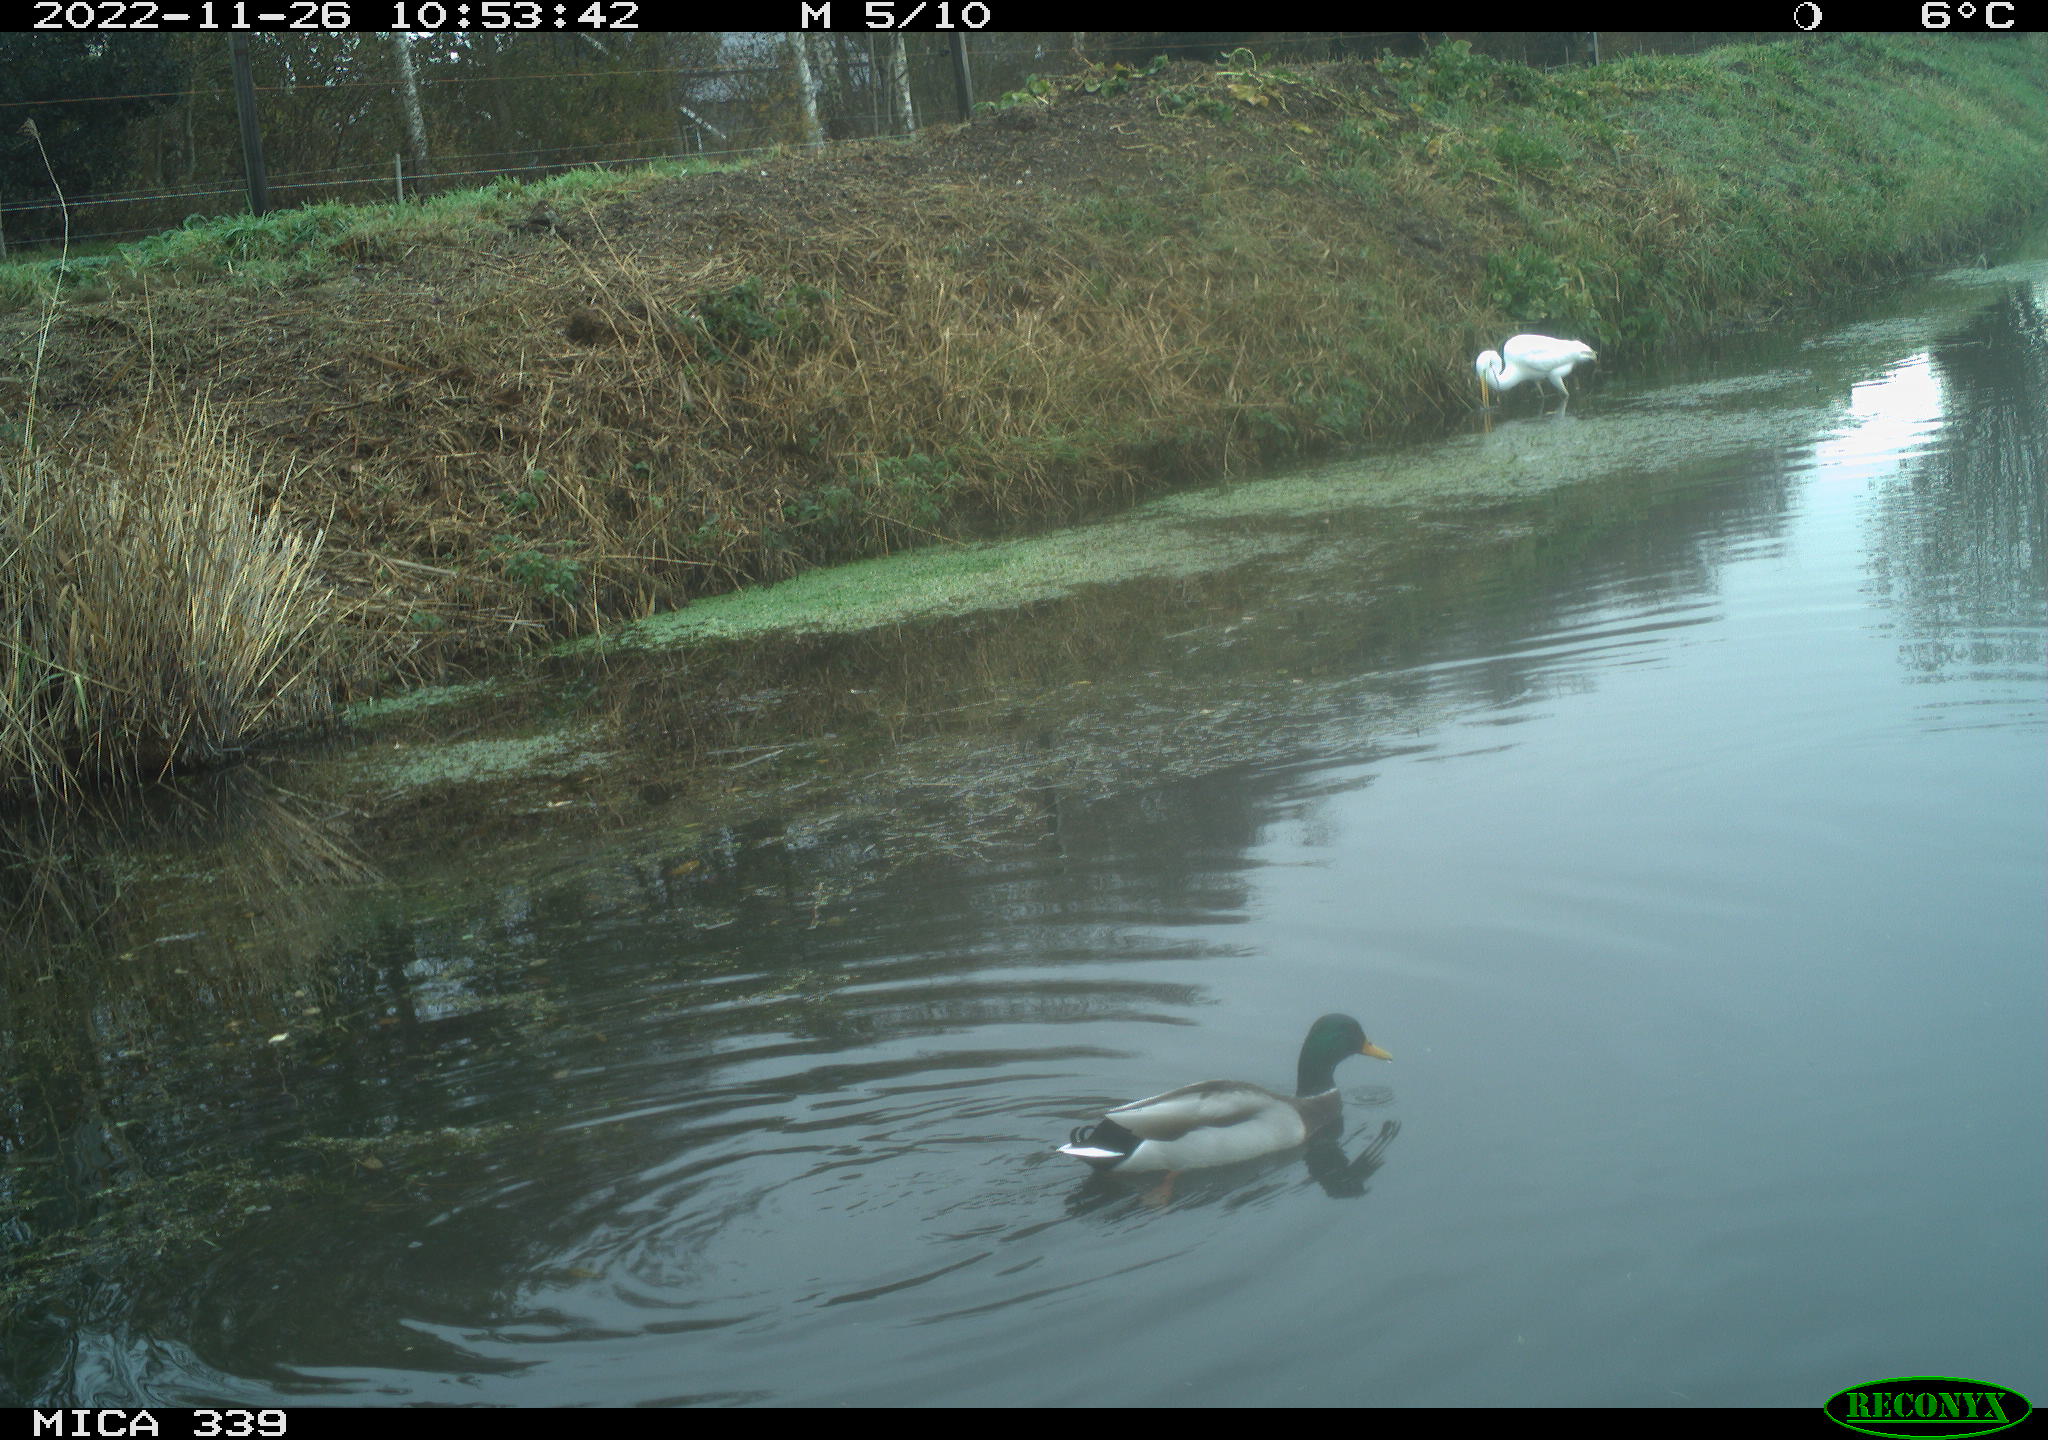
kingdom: Animalia
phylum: Chordata
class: Aves
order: Anseriformes
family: Anatidae
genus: Anas
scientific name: Anas platyrhynchos
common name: Mallard
